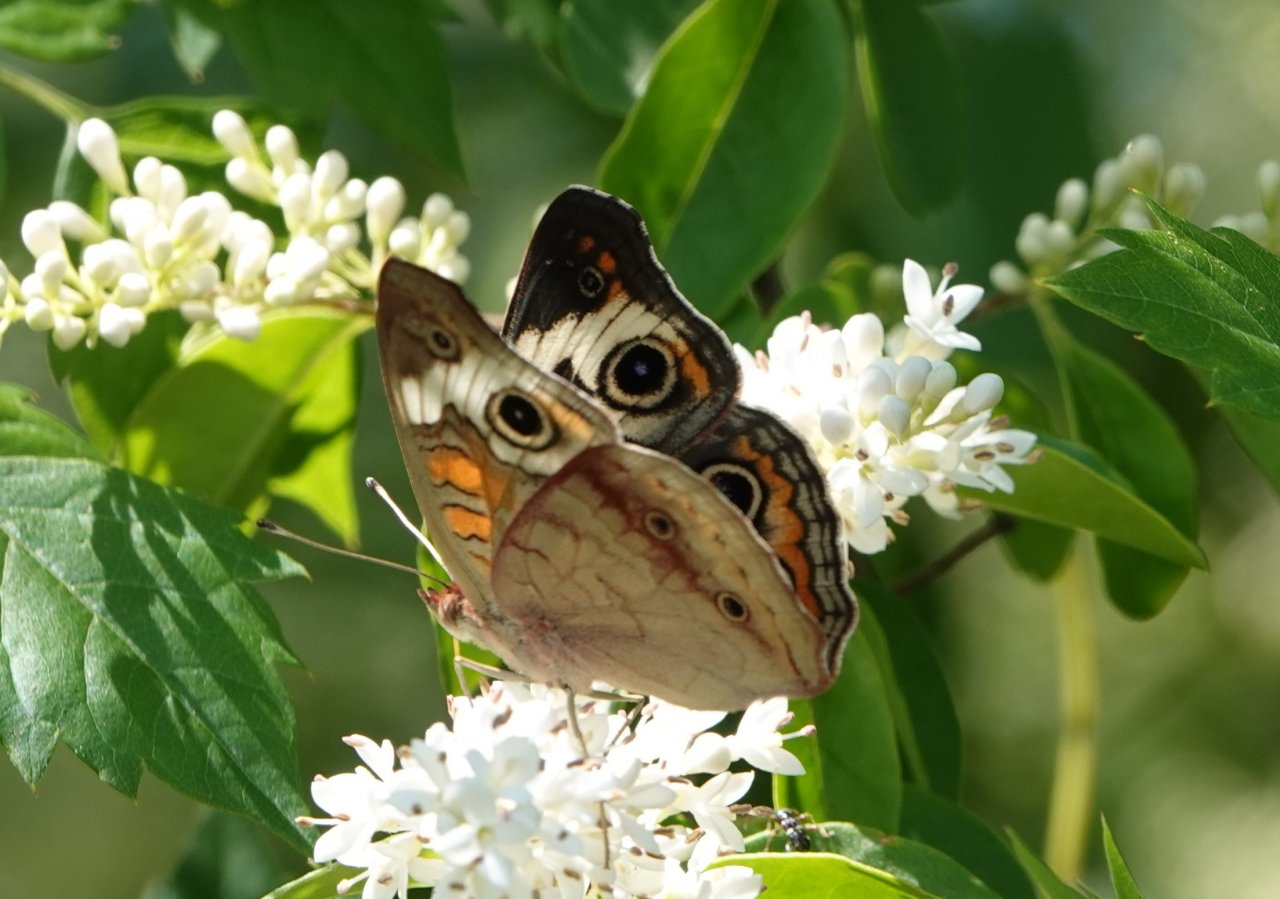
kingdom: Animalia
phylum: Arthropoda
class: Insecta
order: Lepidoptera
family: Nymphalidae
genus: Junonia
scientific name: Junonia coenia
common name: Common Buckeye
